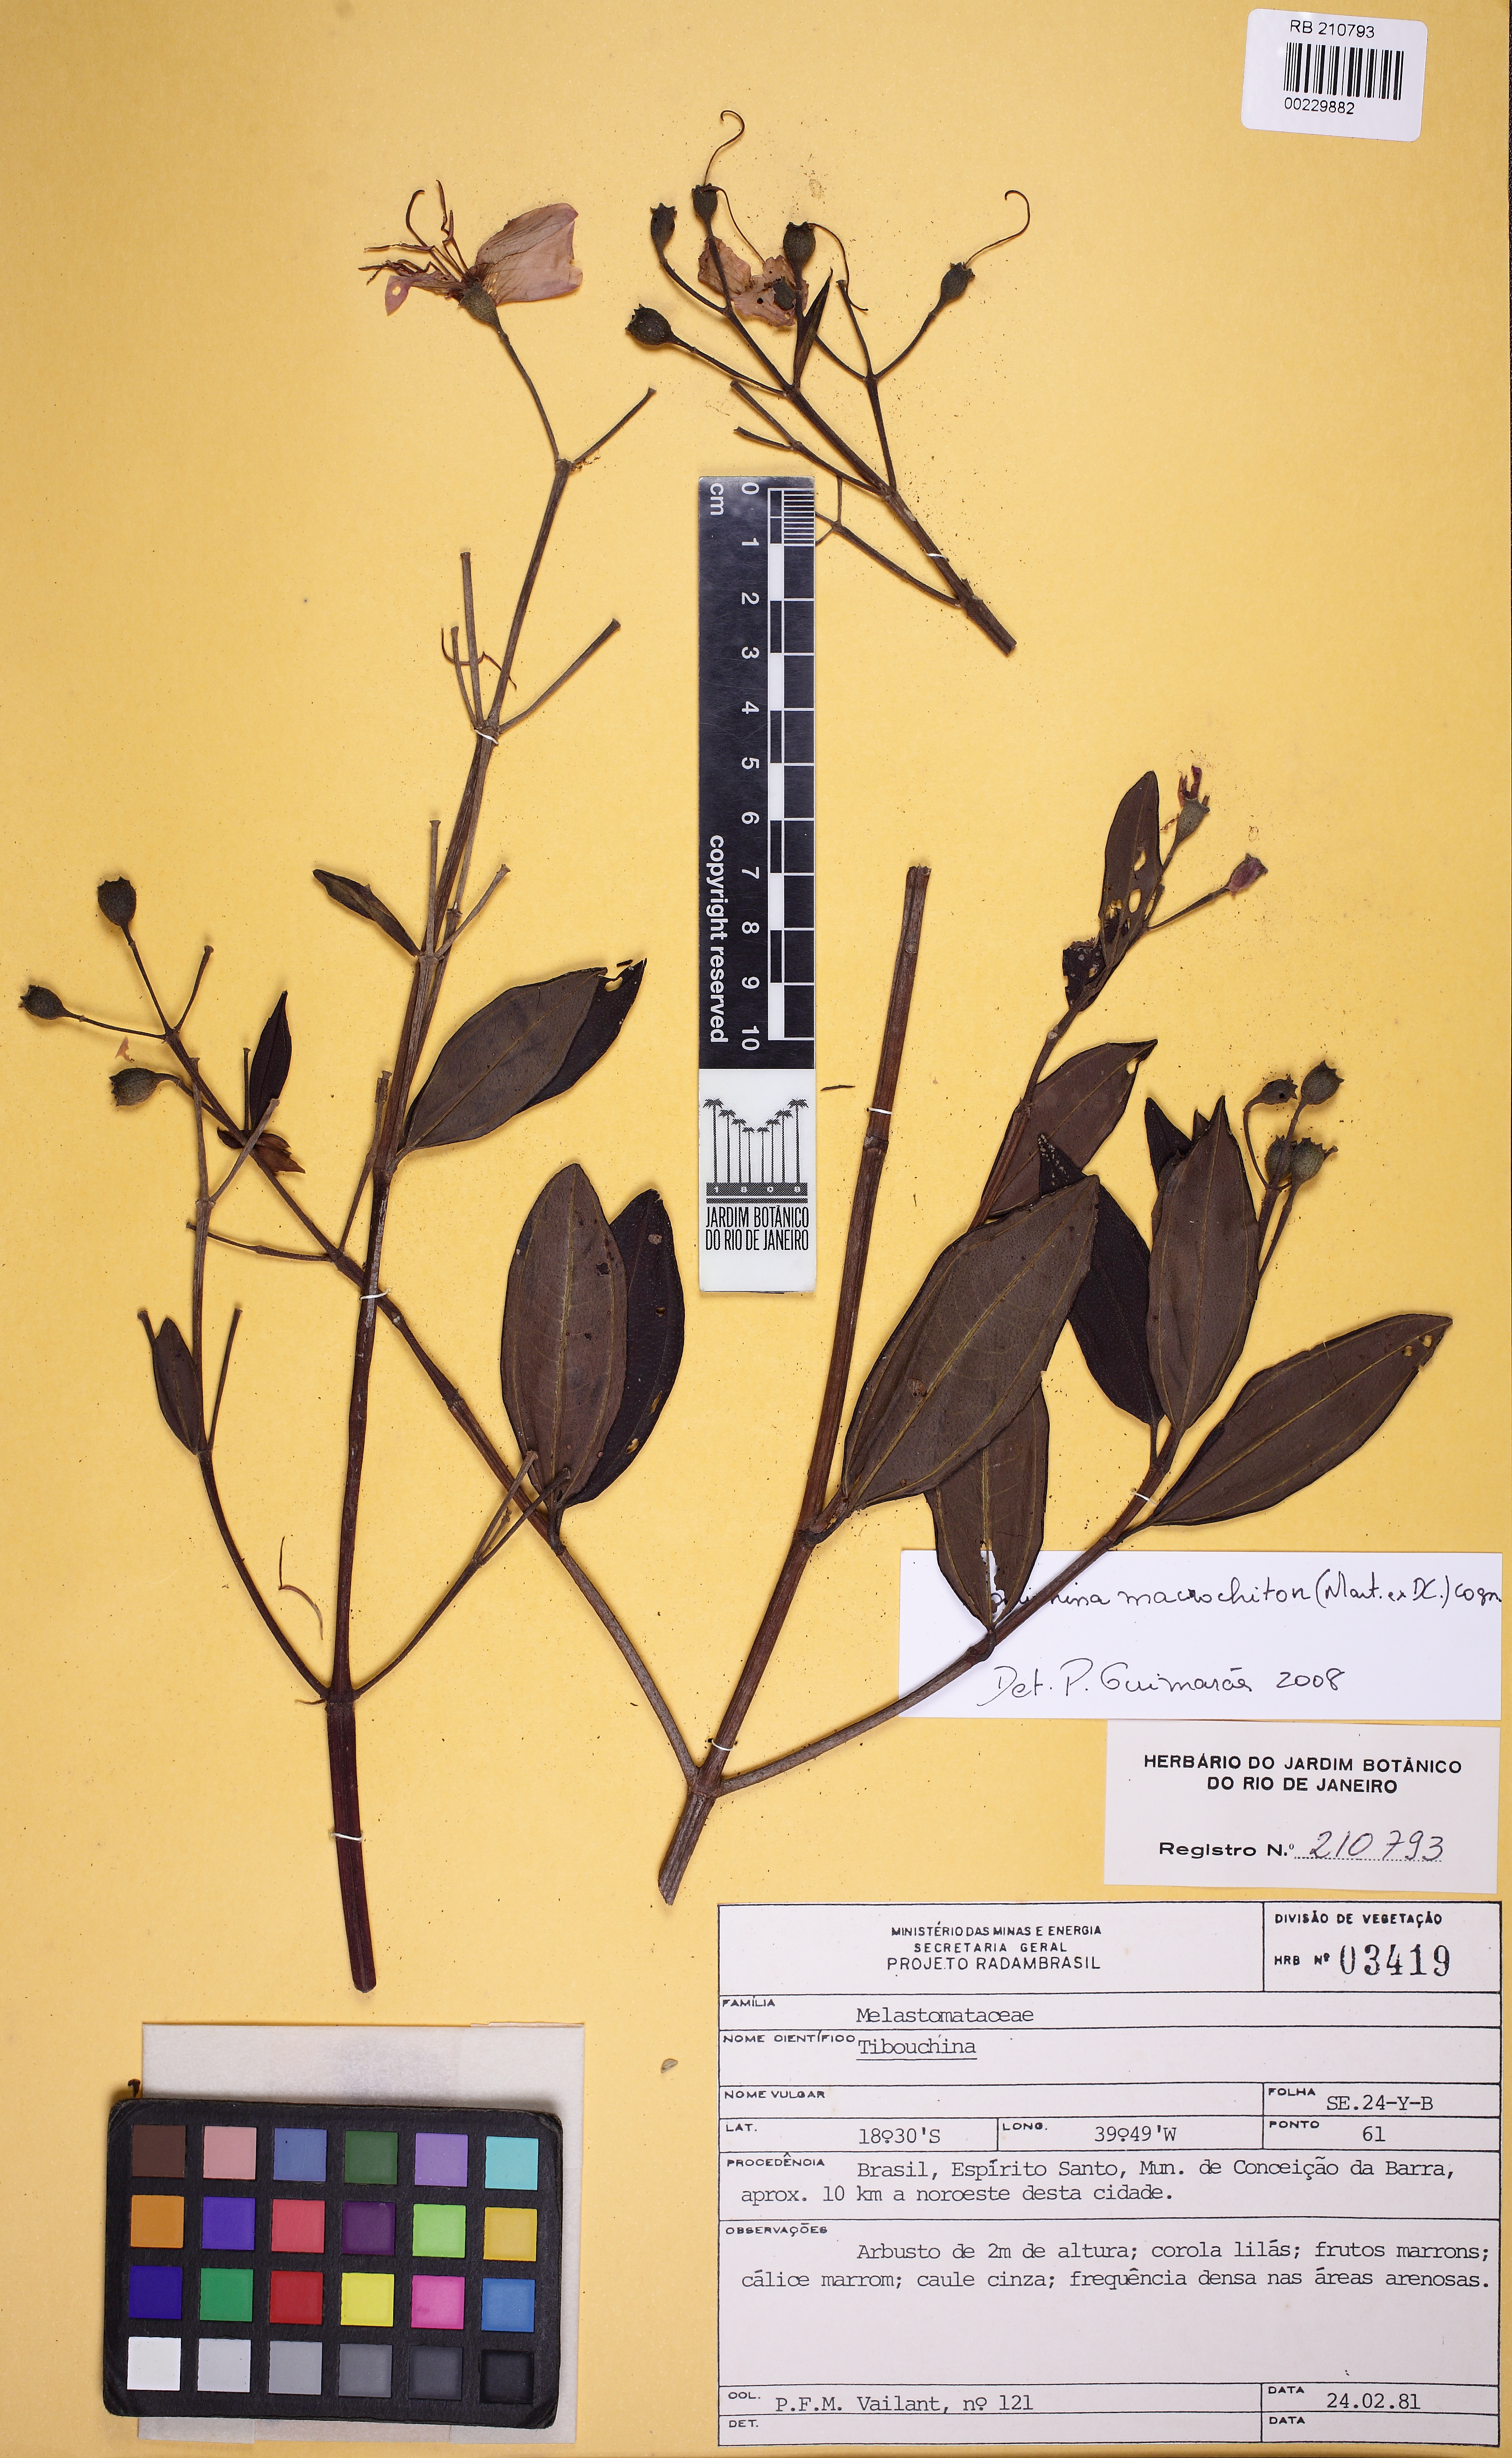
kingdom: Plantae
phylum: Tracheophyta
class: Magnoliopsida
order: Myrtales
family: Melastomataceae
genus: Pleroma
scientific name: Pleroma macrochiton
